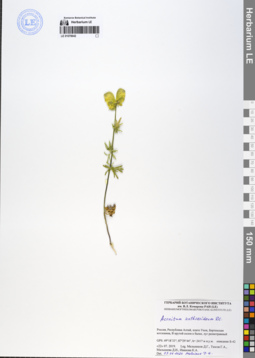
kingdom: Plantae
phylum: Tracheophyta
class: Magnoliopsida
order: Ranunculales
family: Ranunculaceae
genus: Aconitum
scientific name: Aconitum anthoroideum
